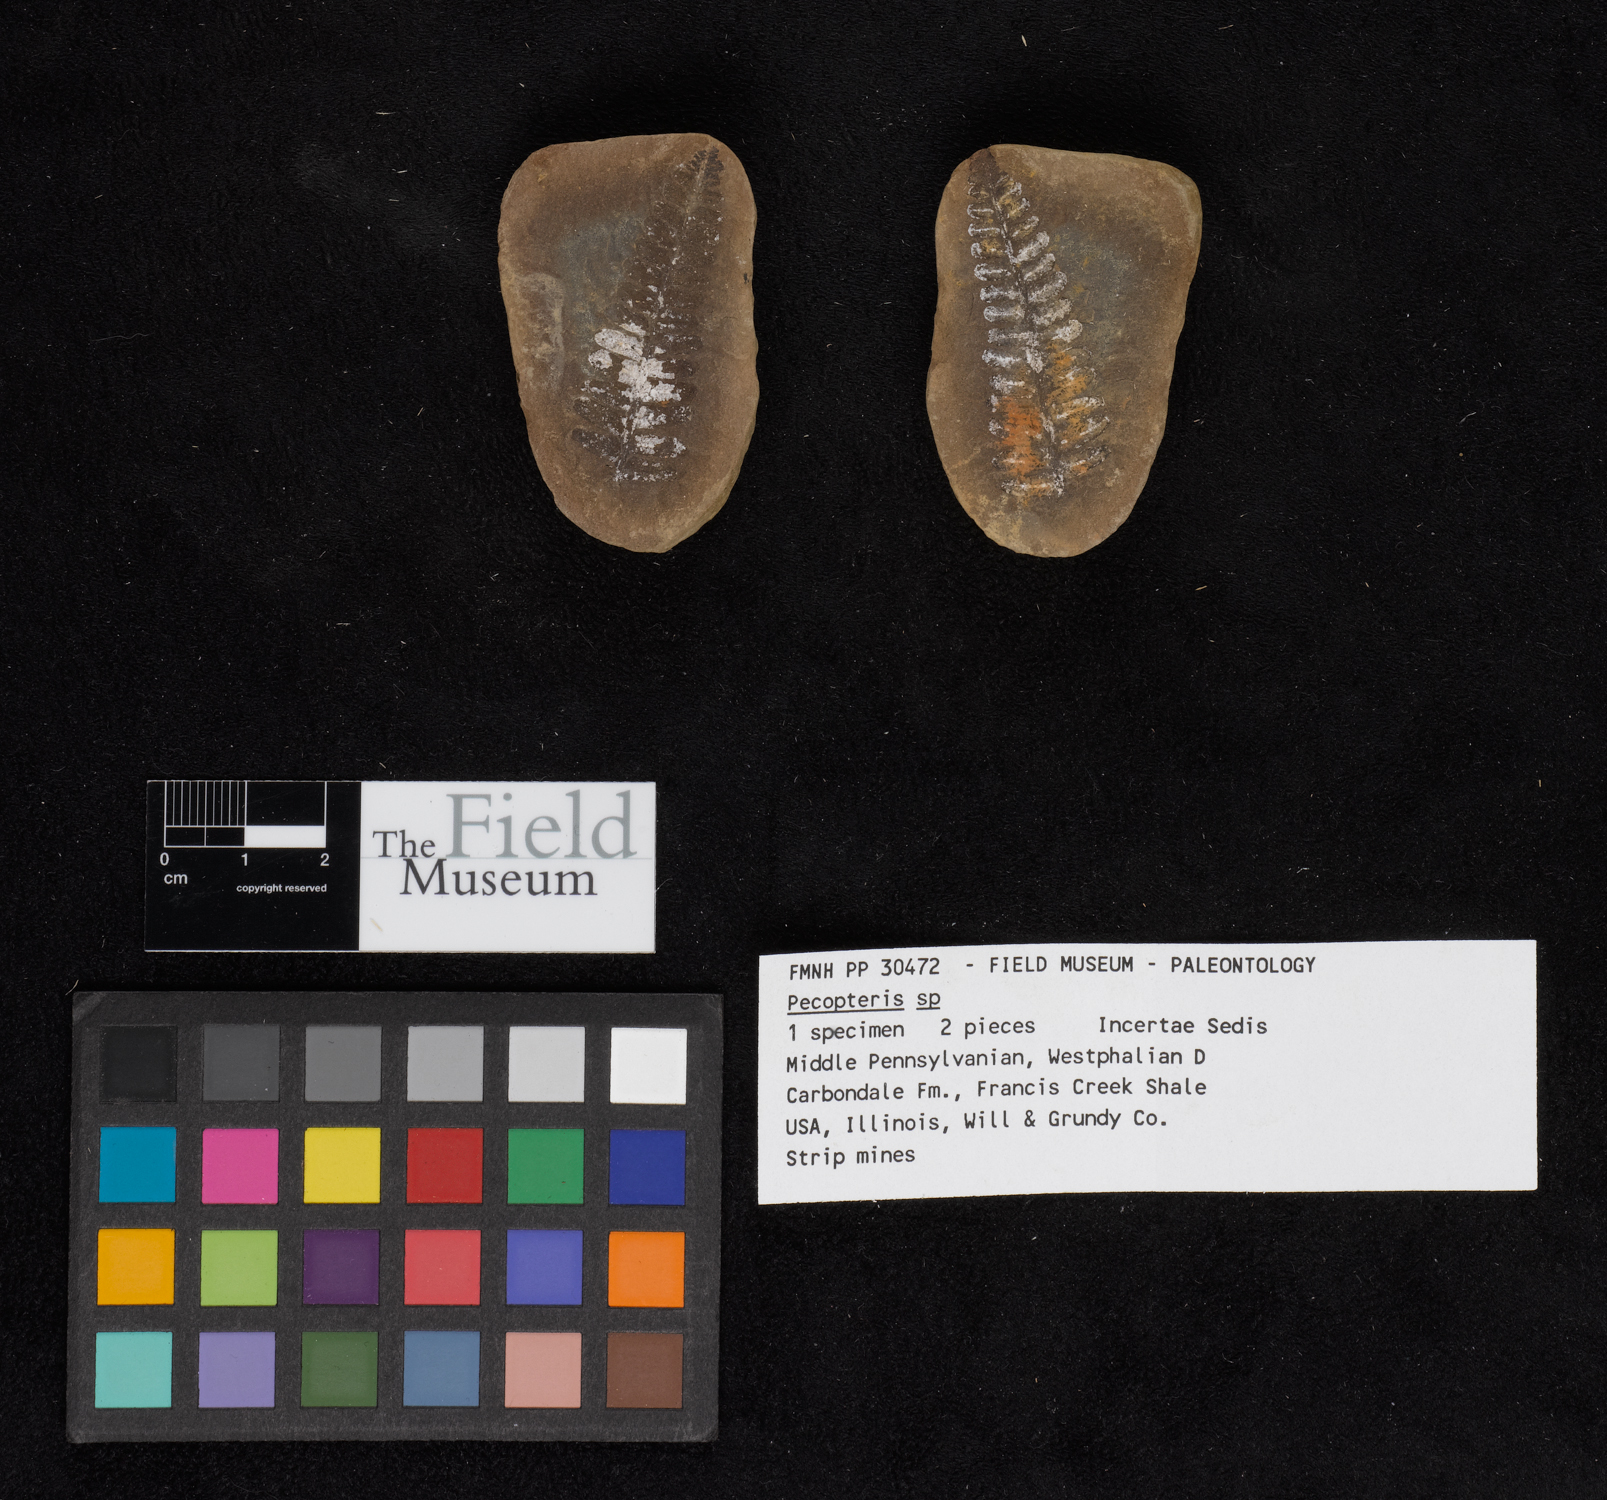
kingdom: Plantae
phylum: Tracheophyta
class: Polypodiopsida
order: Marattiales
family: Asterothecaceae
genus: Pecopteris
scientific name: Pecopteris
